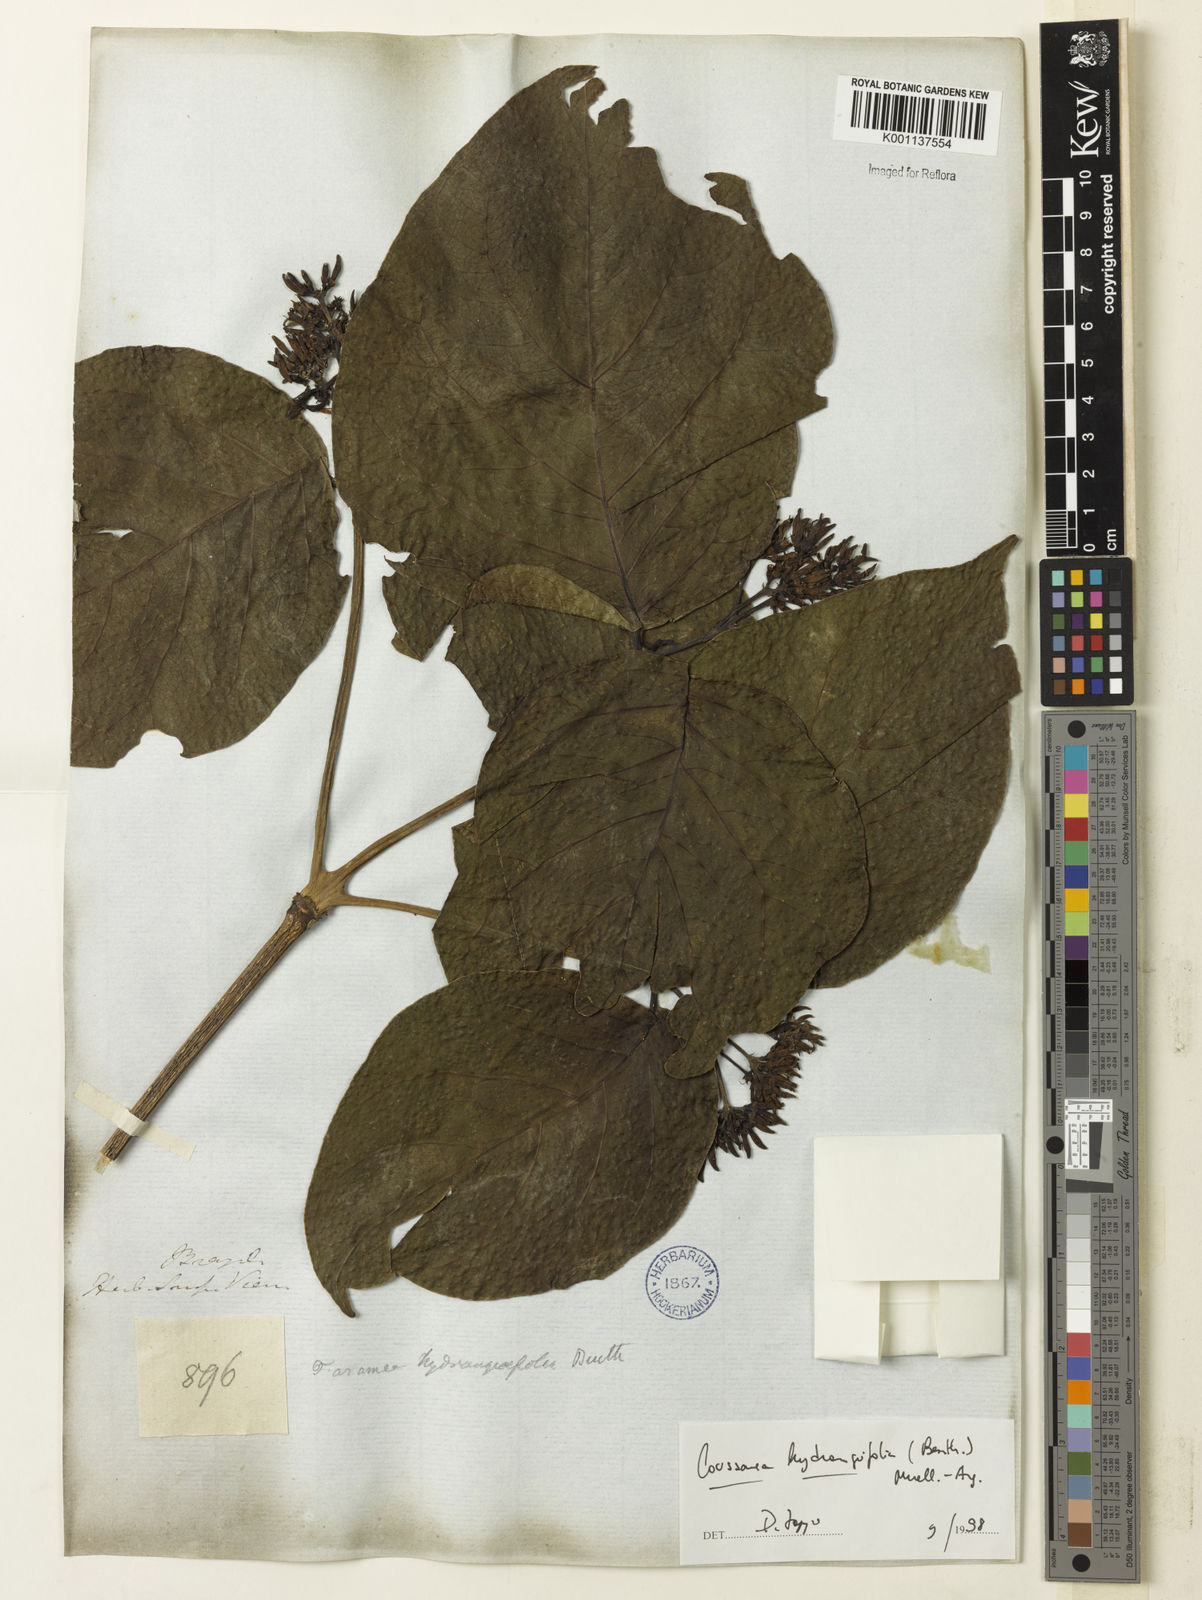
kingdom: Plantae
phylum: Tracheophyta
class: Magnoliopsida
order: Gentianales
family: Rubiaceae
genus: Coussarea
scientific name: Coussarea
